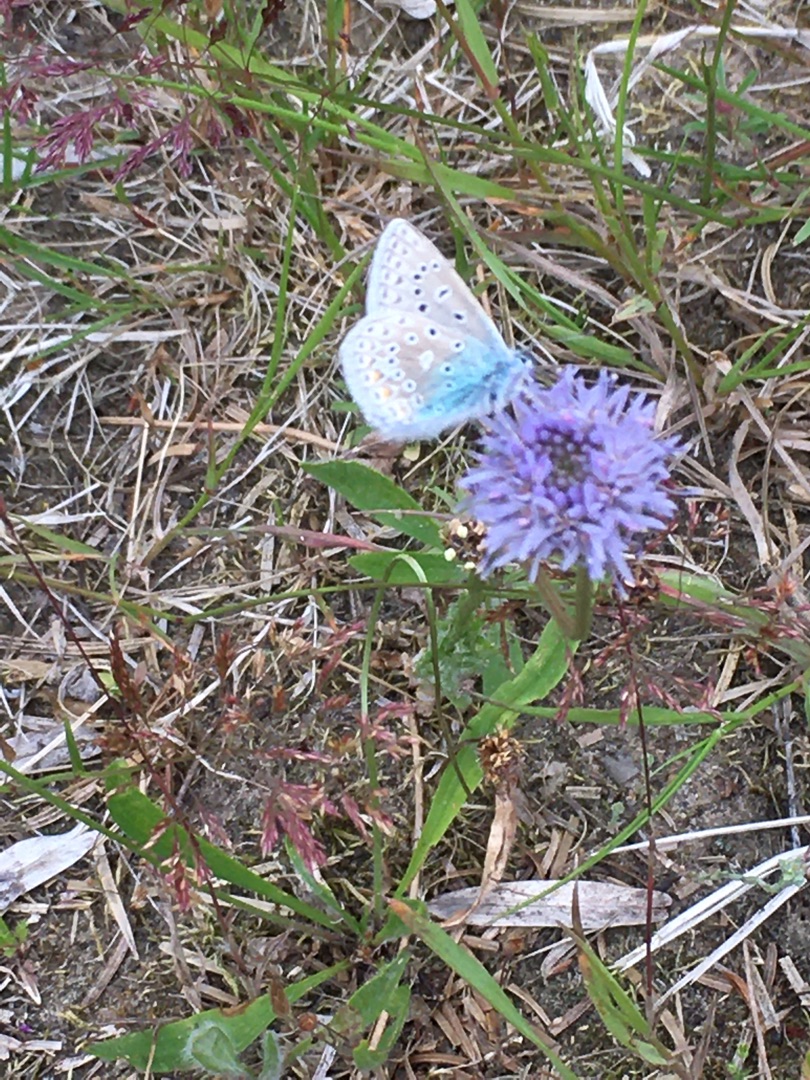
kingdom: Animalia
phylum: Arthropoda
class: Insecta
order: Lepidoptera
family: Lycaenidae
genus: Polyommatus
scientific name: Polyommatus icarus
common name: Almindelig blåfugl
